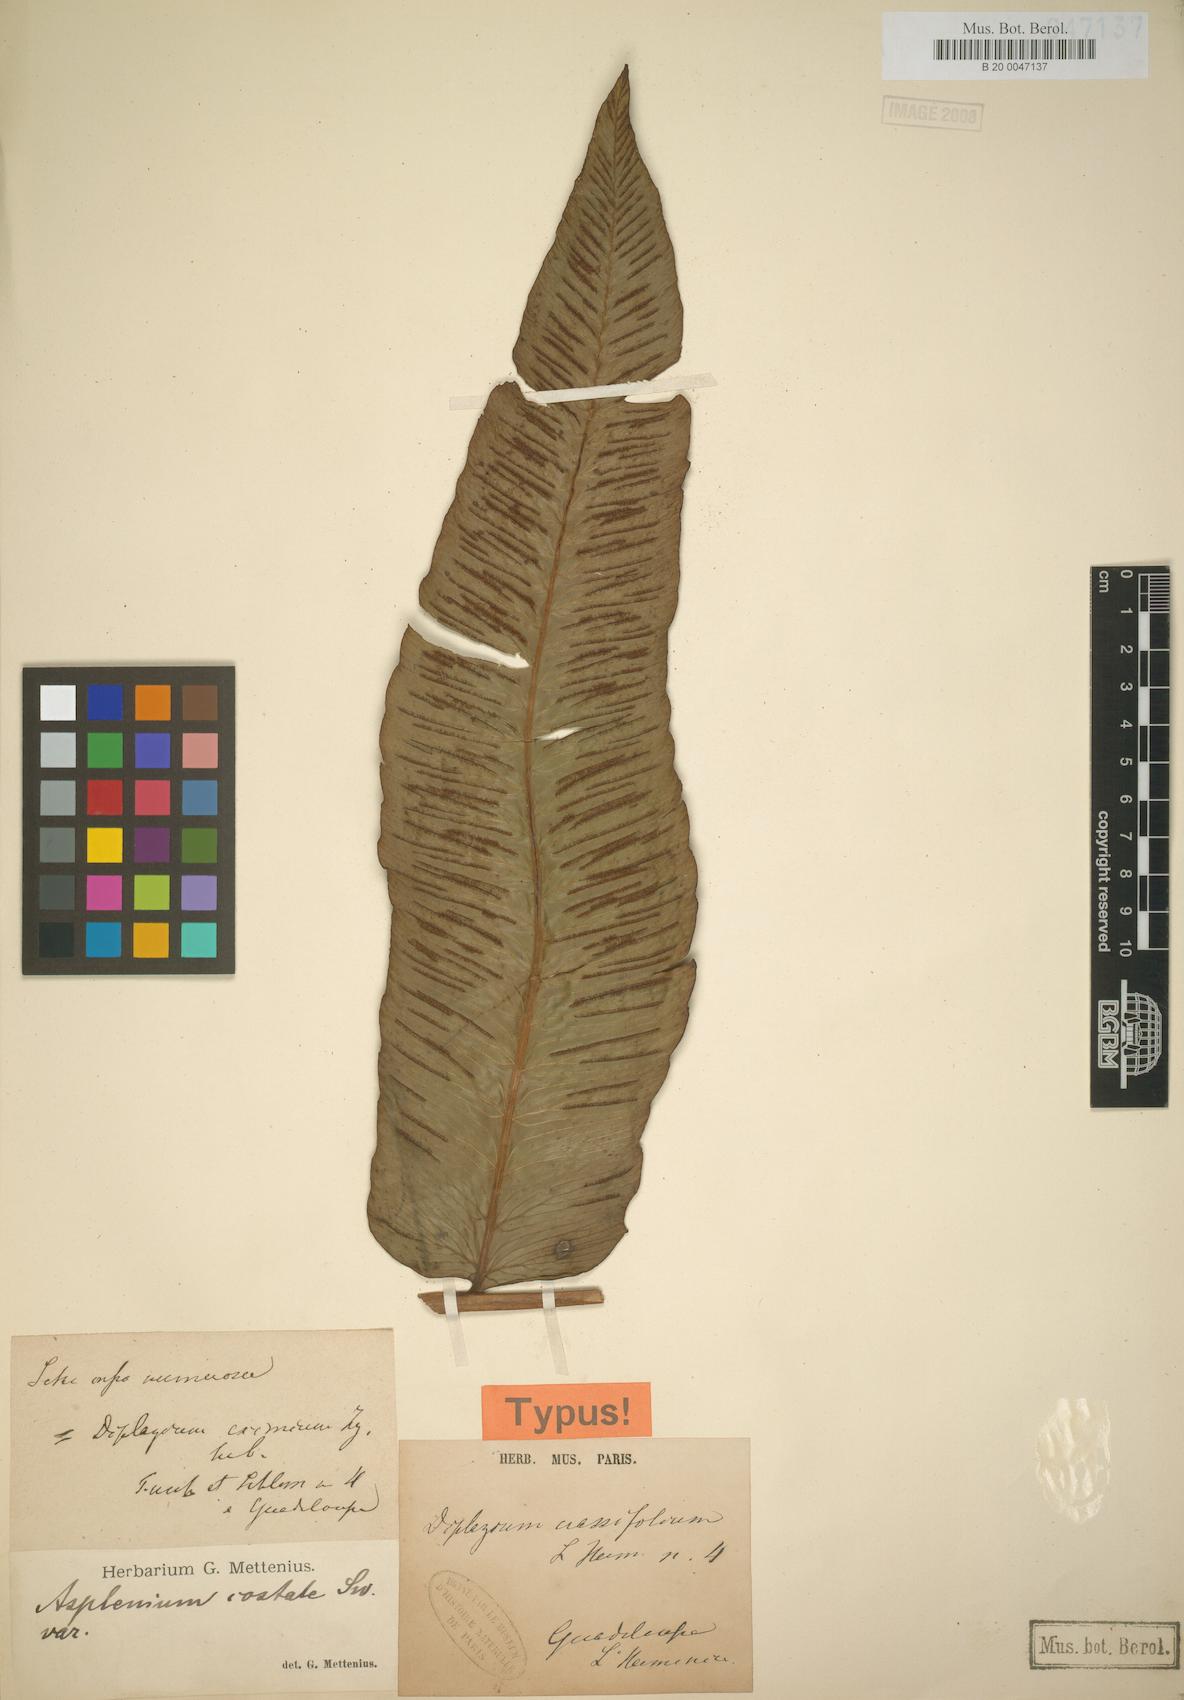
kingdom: Plantae
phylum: Tracheophyta
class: Polypodiopsida
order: Polypodiales
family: Athyriaceae
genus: Diplazium
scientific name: Diplazium
